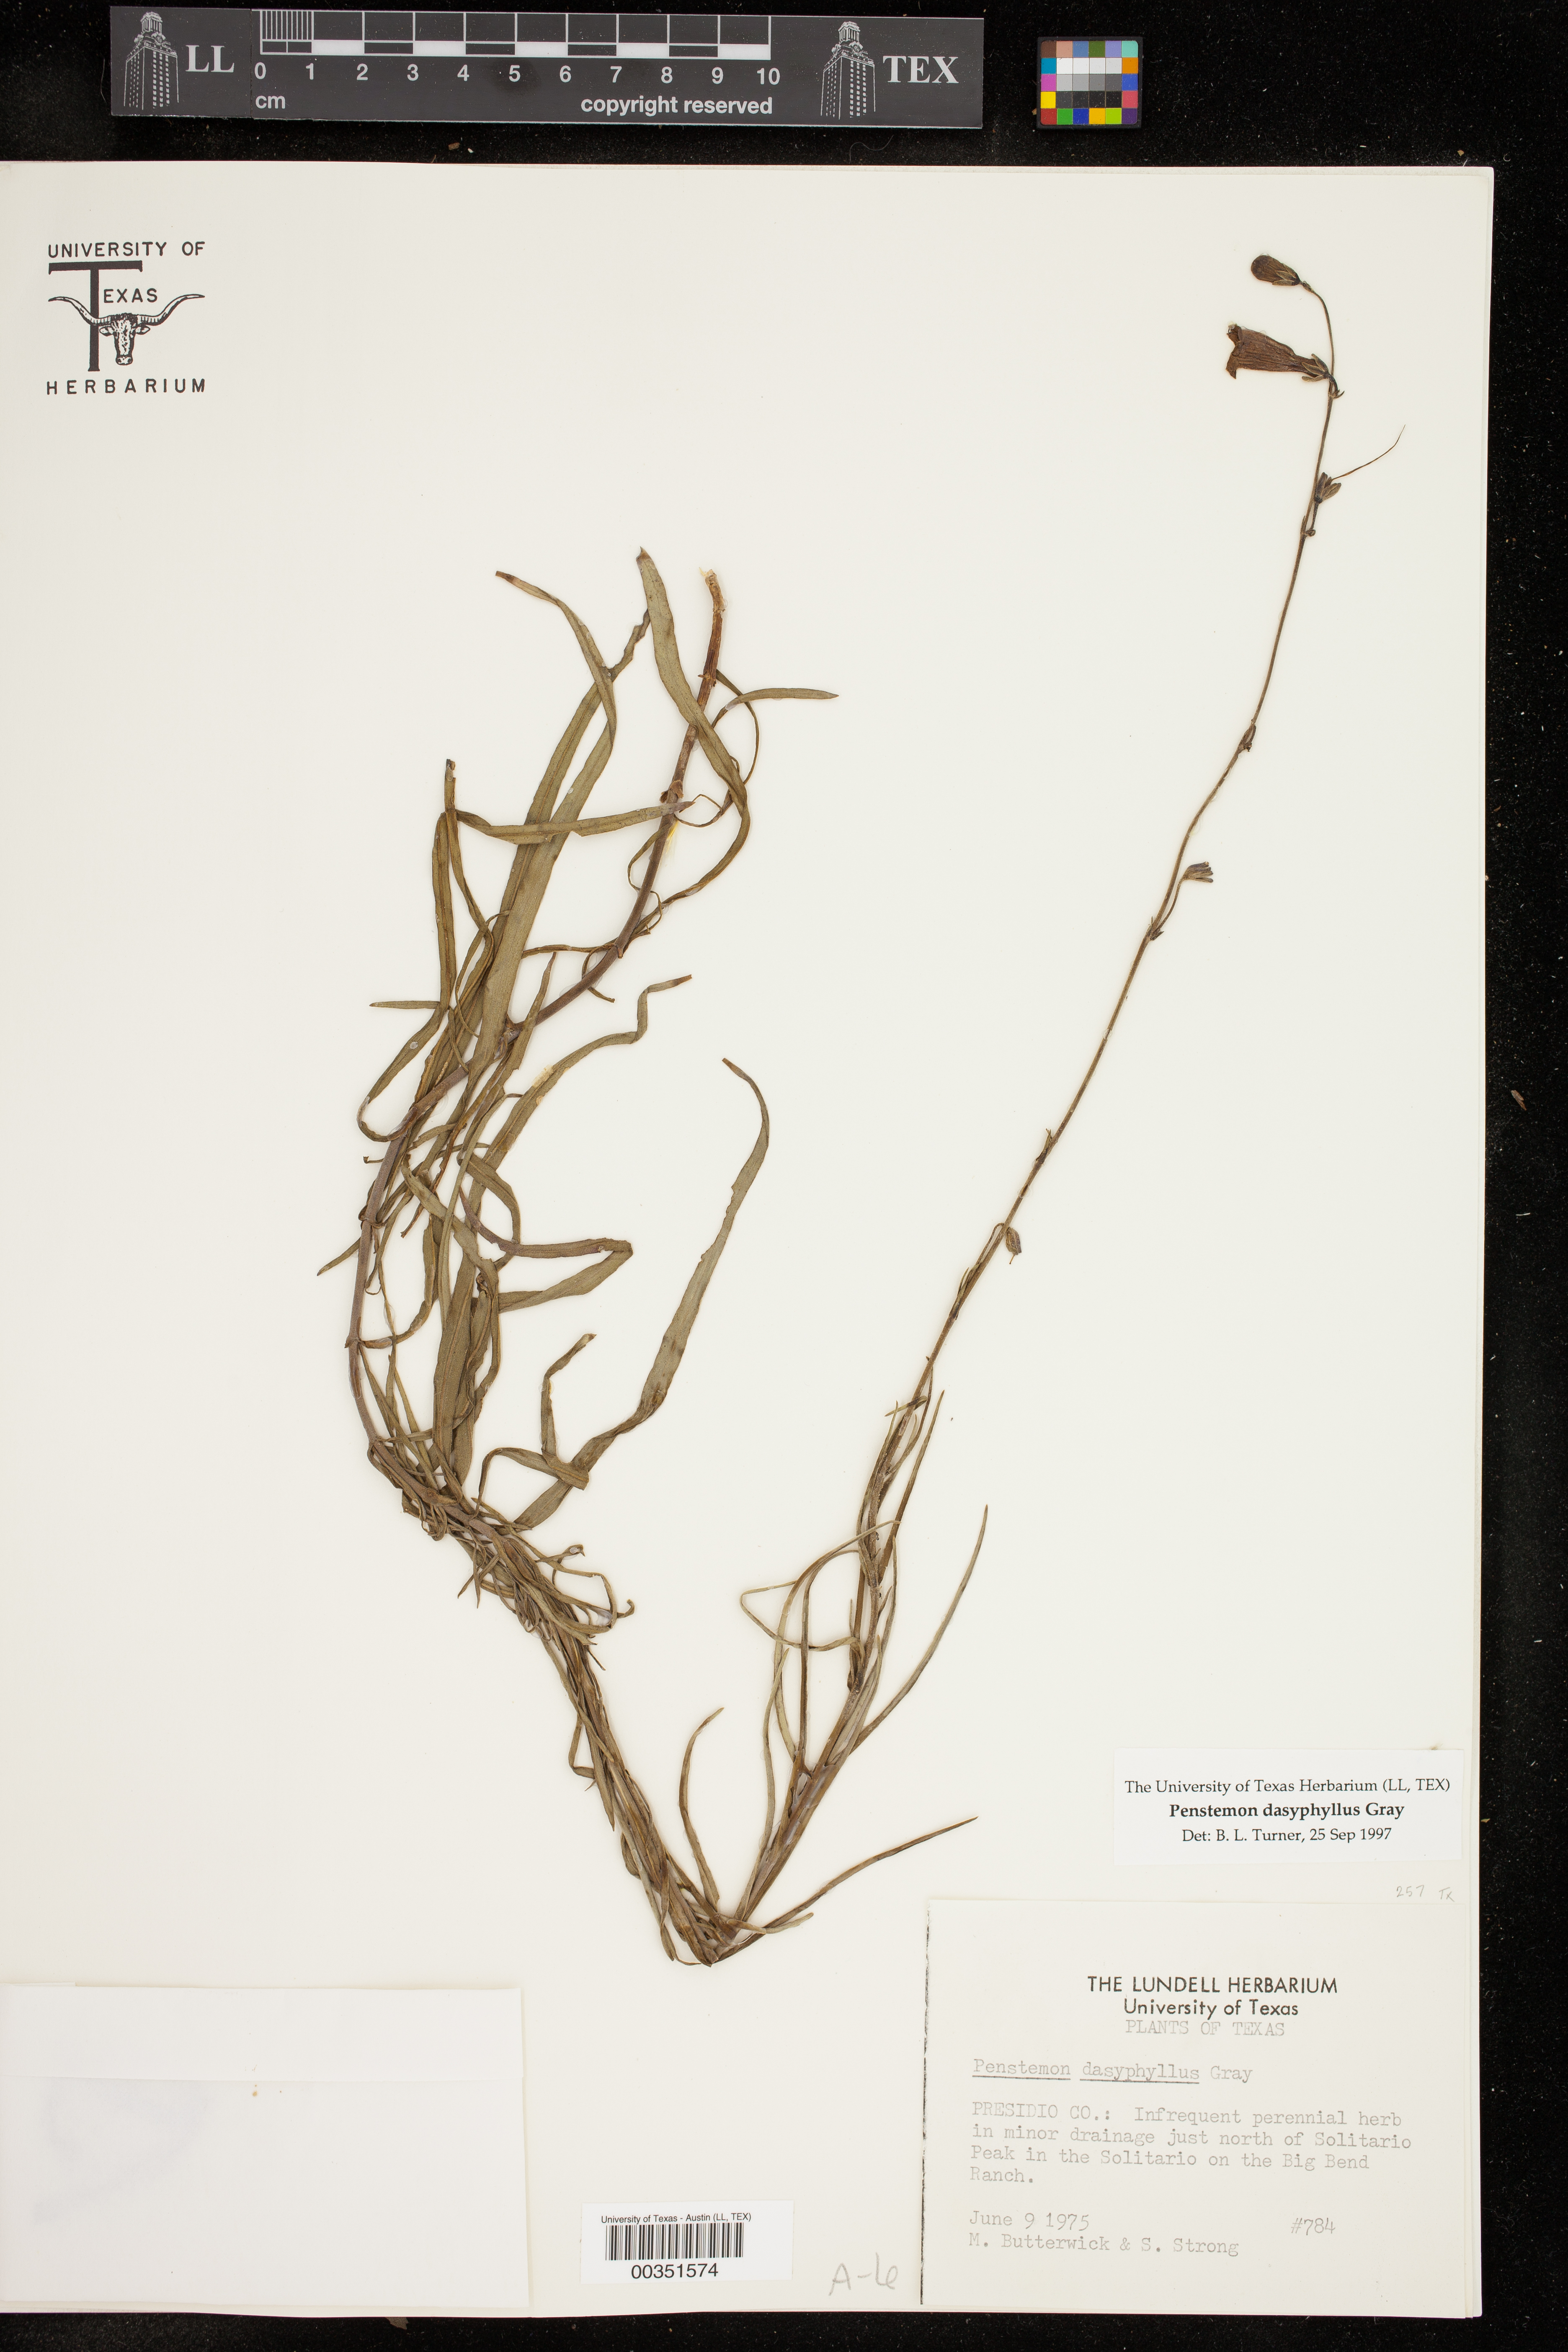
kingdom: Plantae
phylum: Tracheophyta
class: Magnoliopsida
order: Lamiales
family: Plantaginaceae
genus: Penstemon
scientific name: Penstemon dasyphyllus
